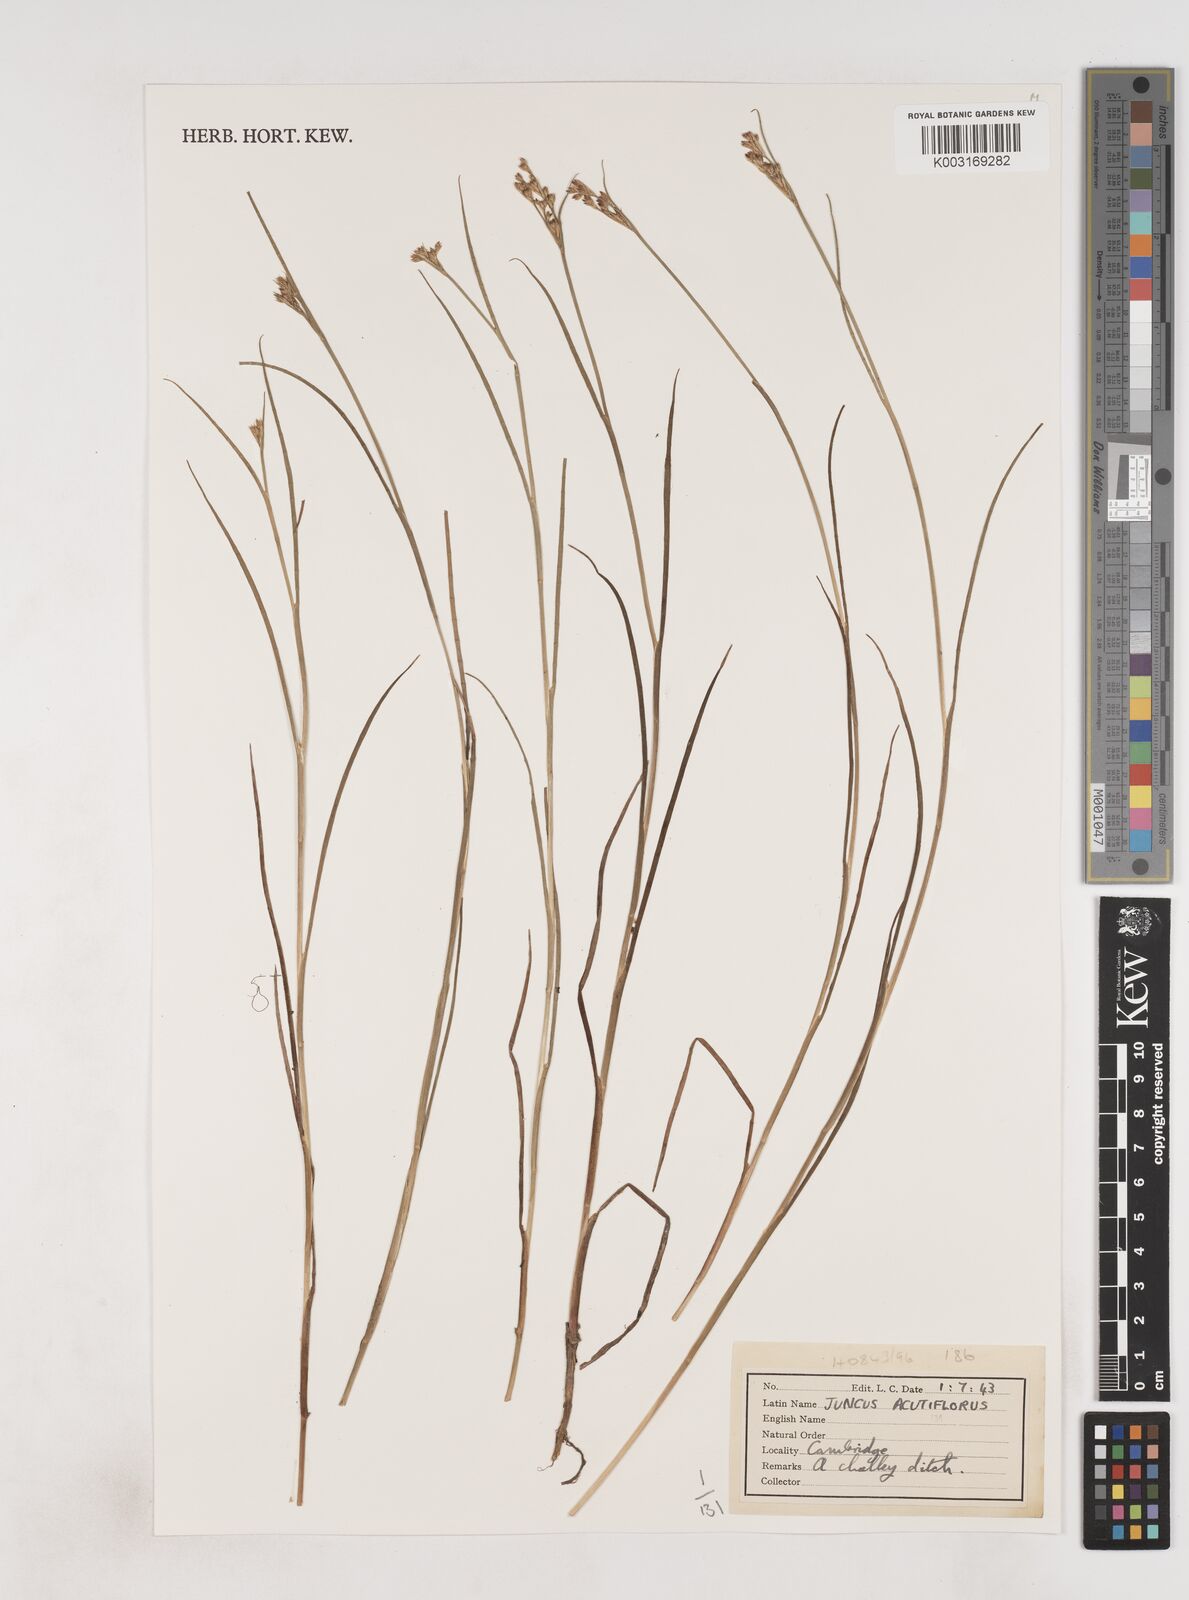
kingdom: Plantae
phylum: Tracheophyta
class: Liliopsida
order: Poales
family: Juncaceae
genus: Juncus
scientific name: Juncus acutiflorus
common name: Sharp-flowered rush
